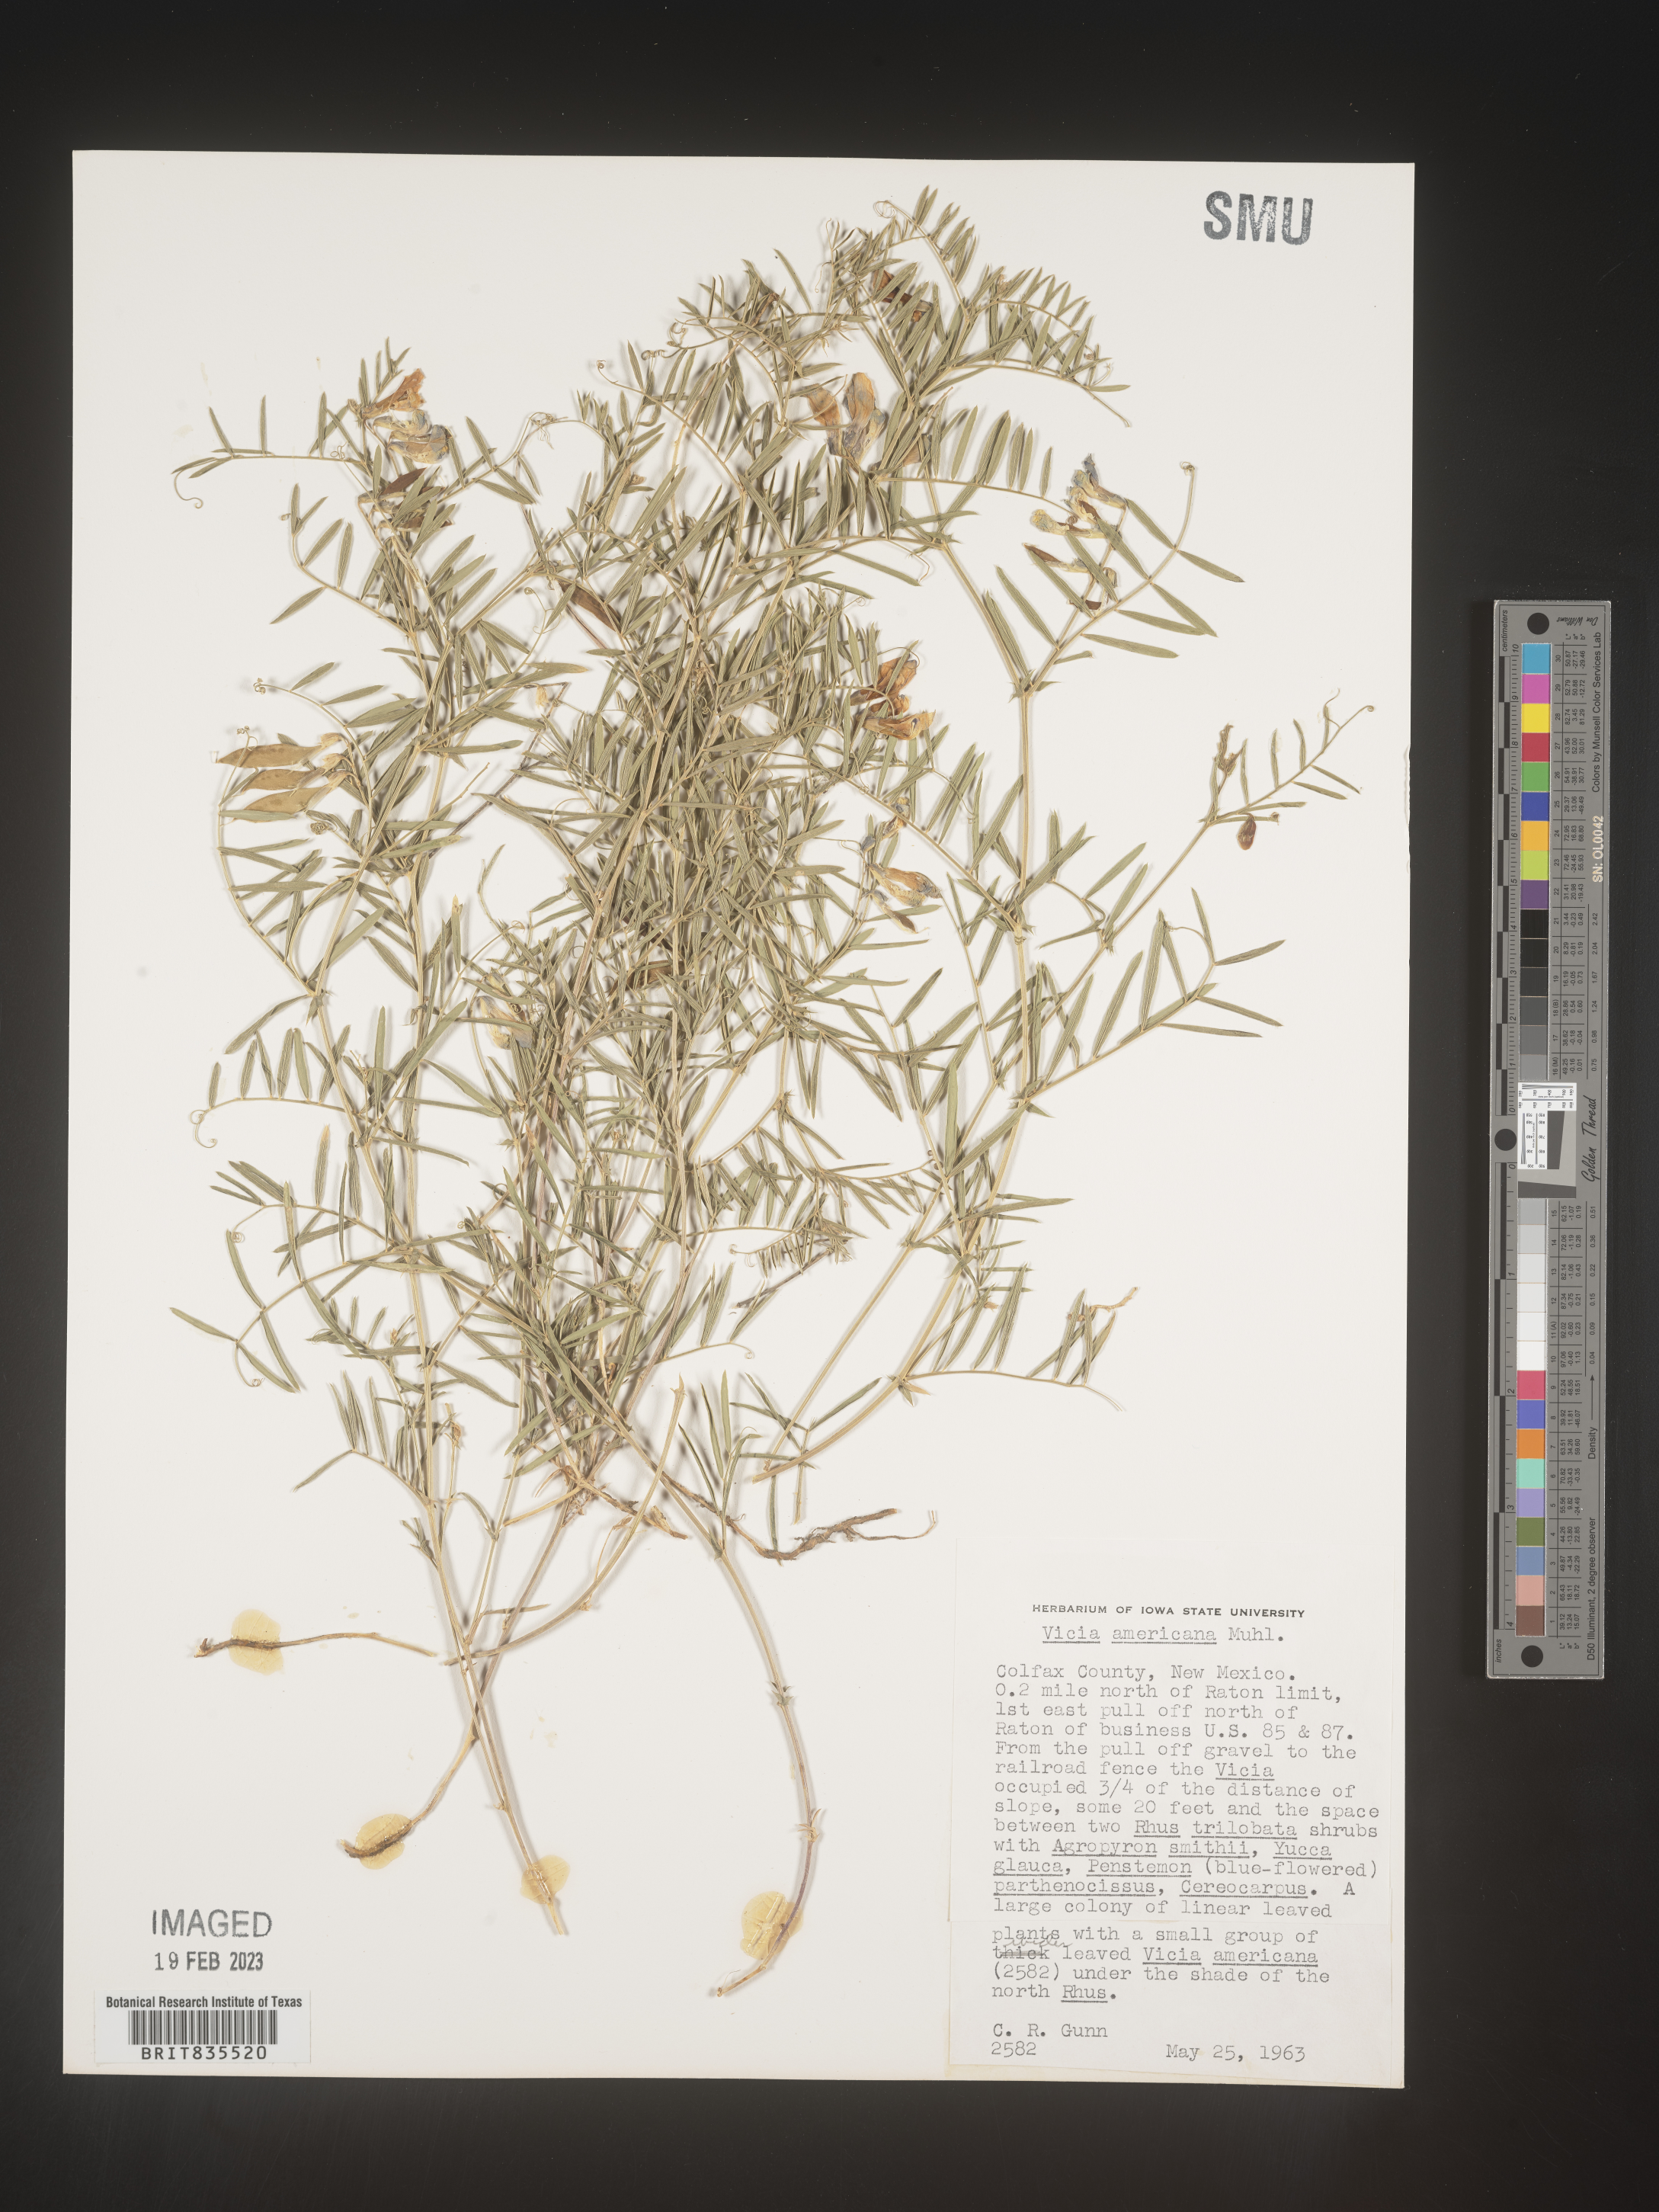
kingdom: Plantae
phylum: Tracheophyta
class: Magnoliopsida
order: Fabales
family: Fabaceae
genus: Vicia
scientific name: Vicia americana
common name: American vetch
